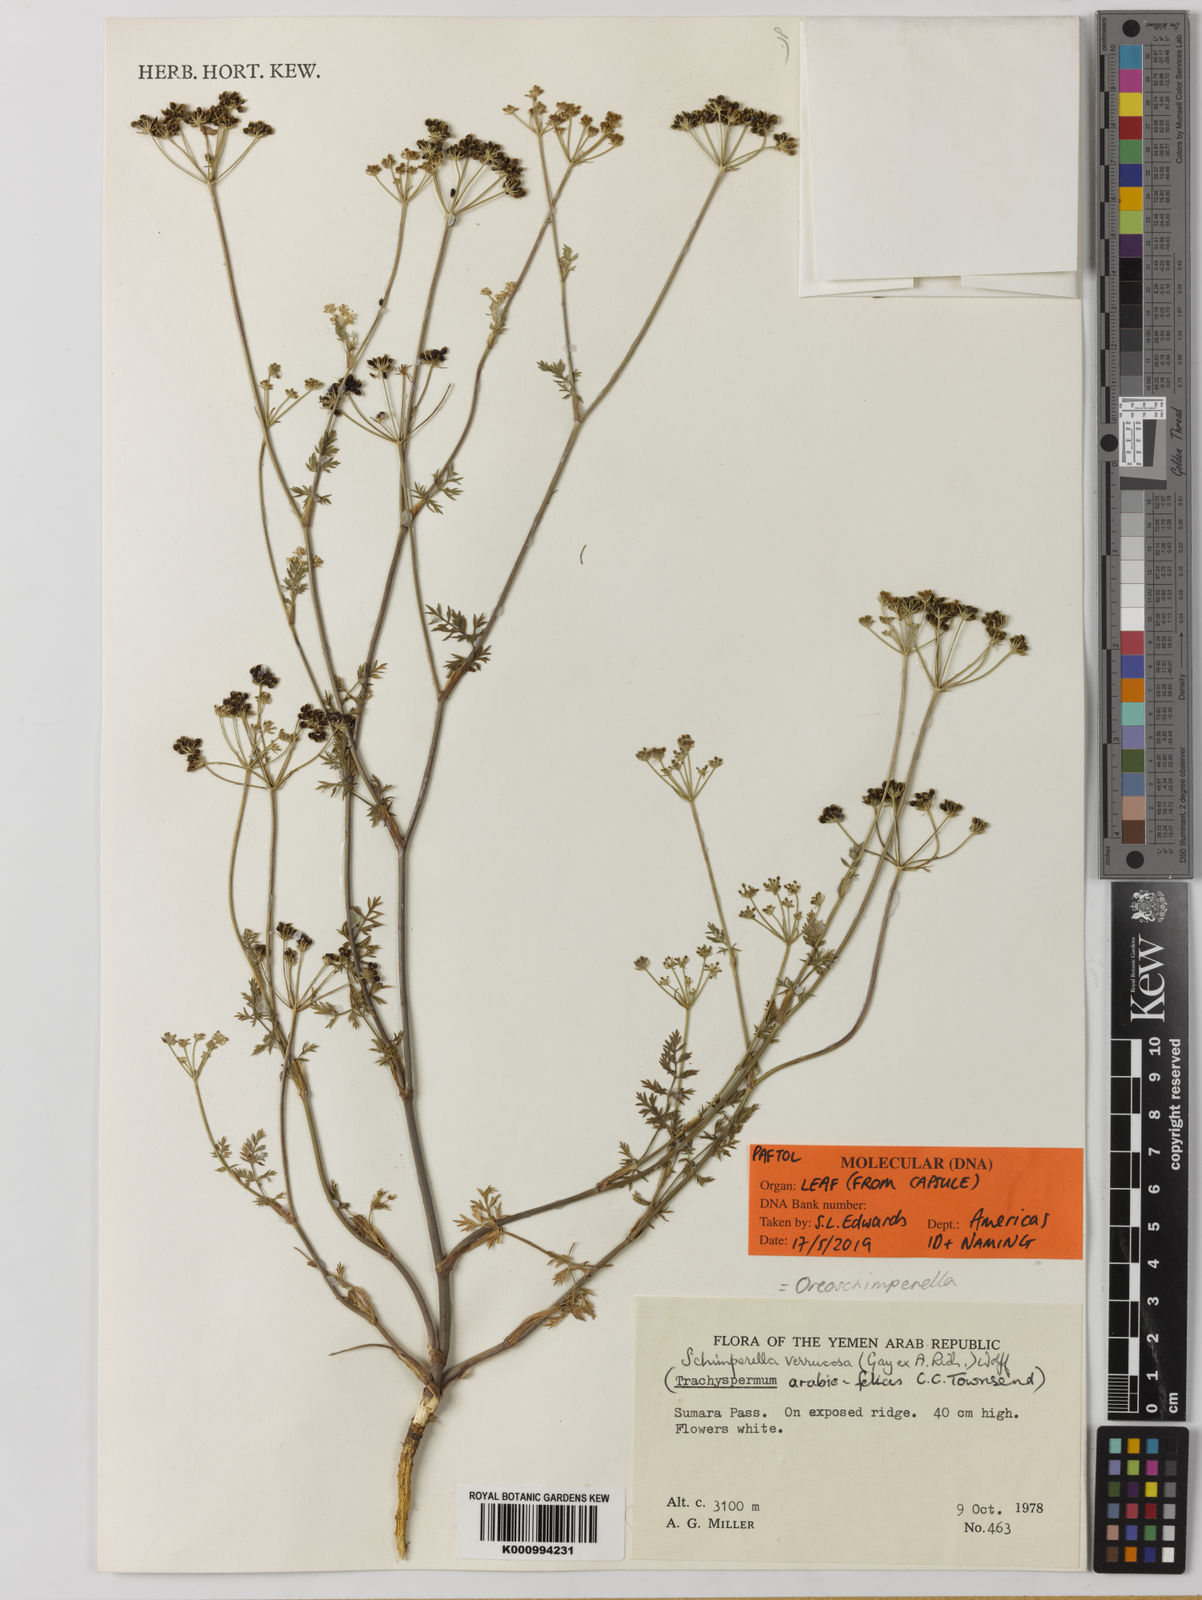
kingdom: Plantae
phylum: Tracheophyta
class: Magnoliopsida
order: Apiales
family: Apiaceae
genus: Oreoschimperella
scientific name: Oreoschimperella
